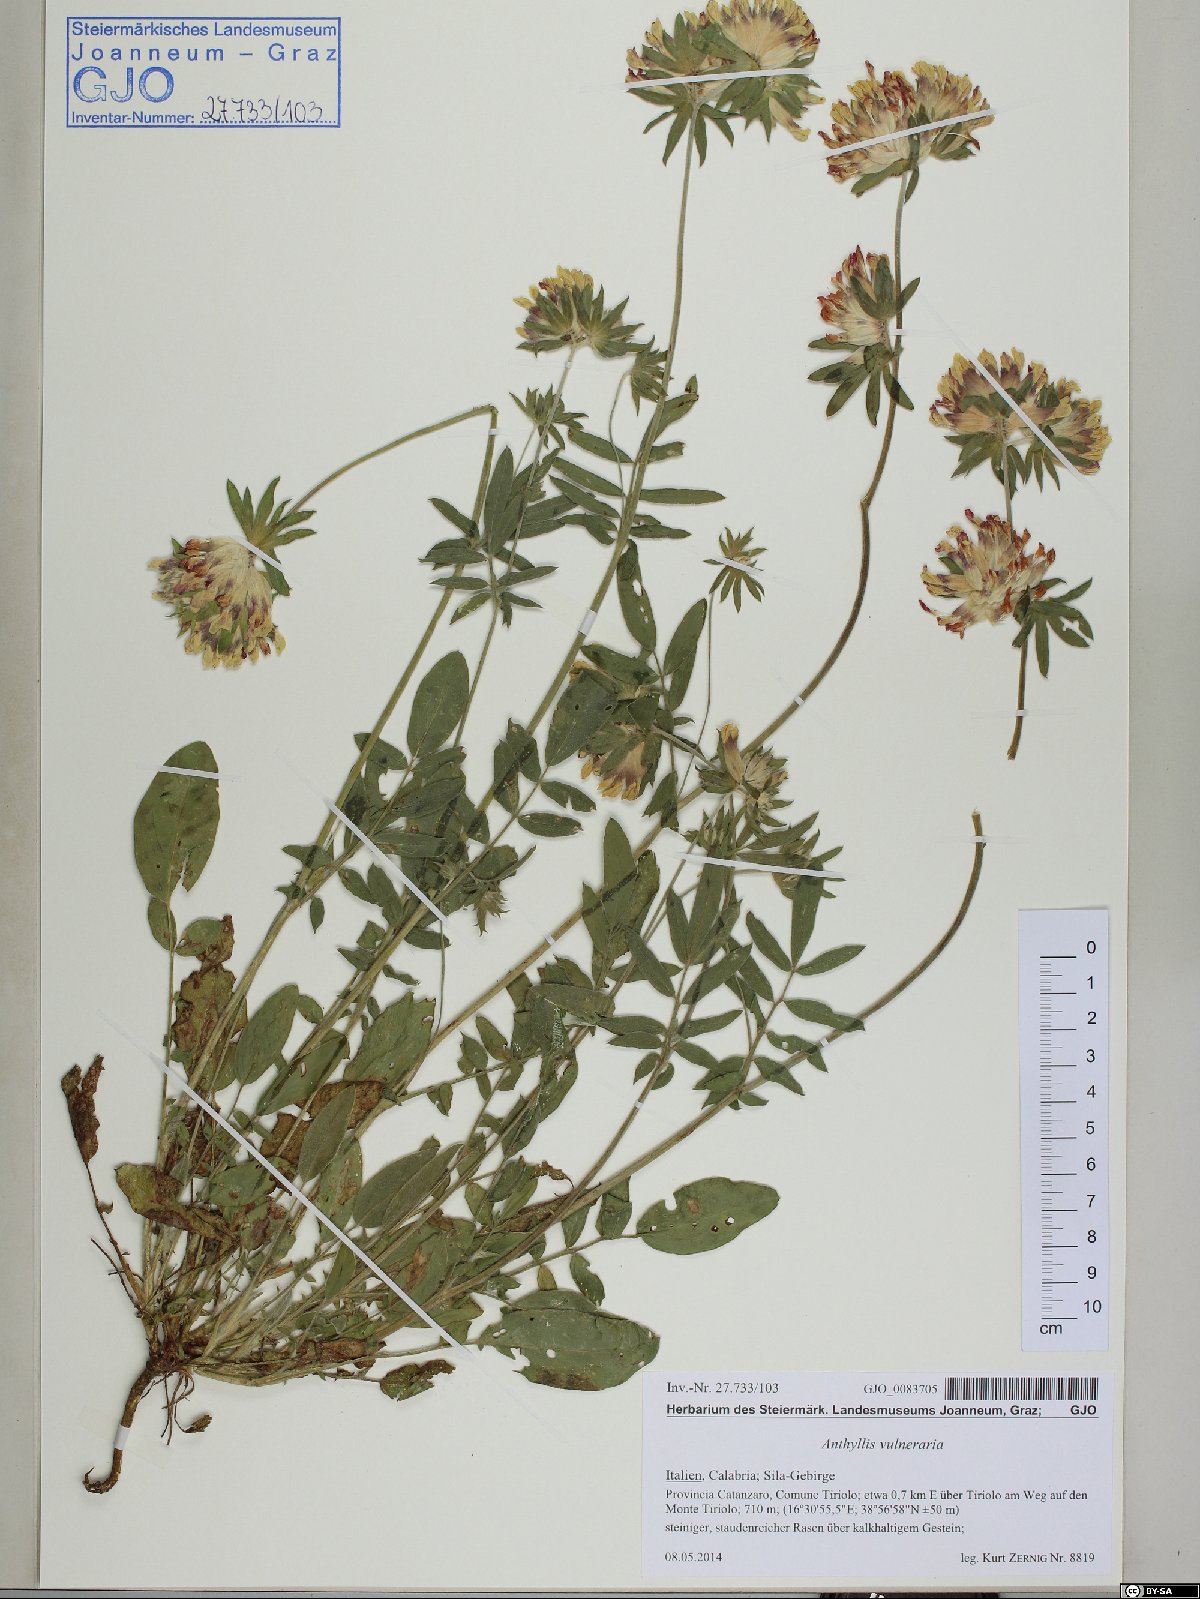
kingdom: Plantae
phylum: Tracheophyta
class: Magnoliopsida
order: Fabales
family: Fabaceae
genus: Anthyllis
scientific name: Anthyllis vulneraria
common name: Kidney vetch
